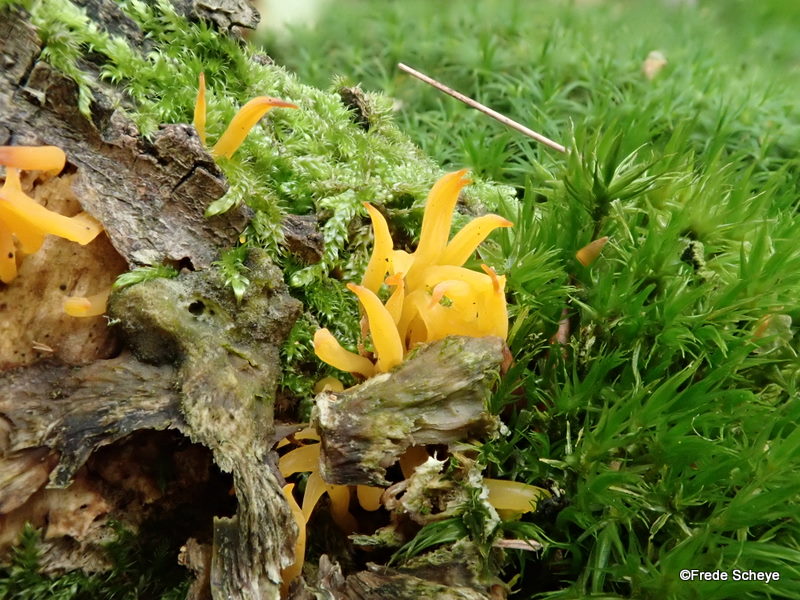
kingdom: Fungi
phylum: Basidiomycota
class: Dacrymycetes
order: Dacrymycetales
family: Dacrymycetaceae
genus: Calocera
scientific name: Calocera cornea
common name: liden guldgaffel
